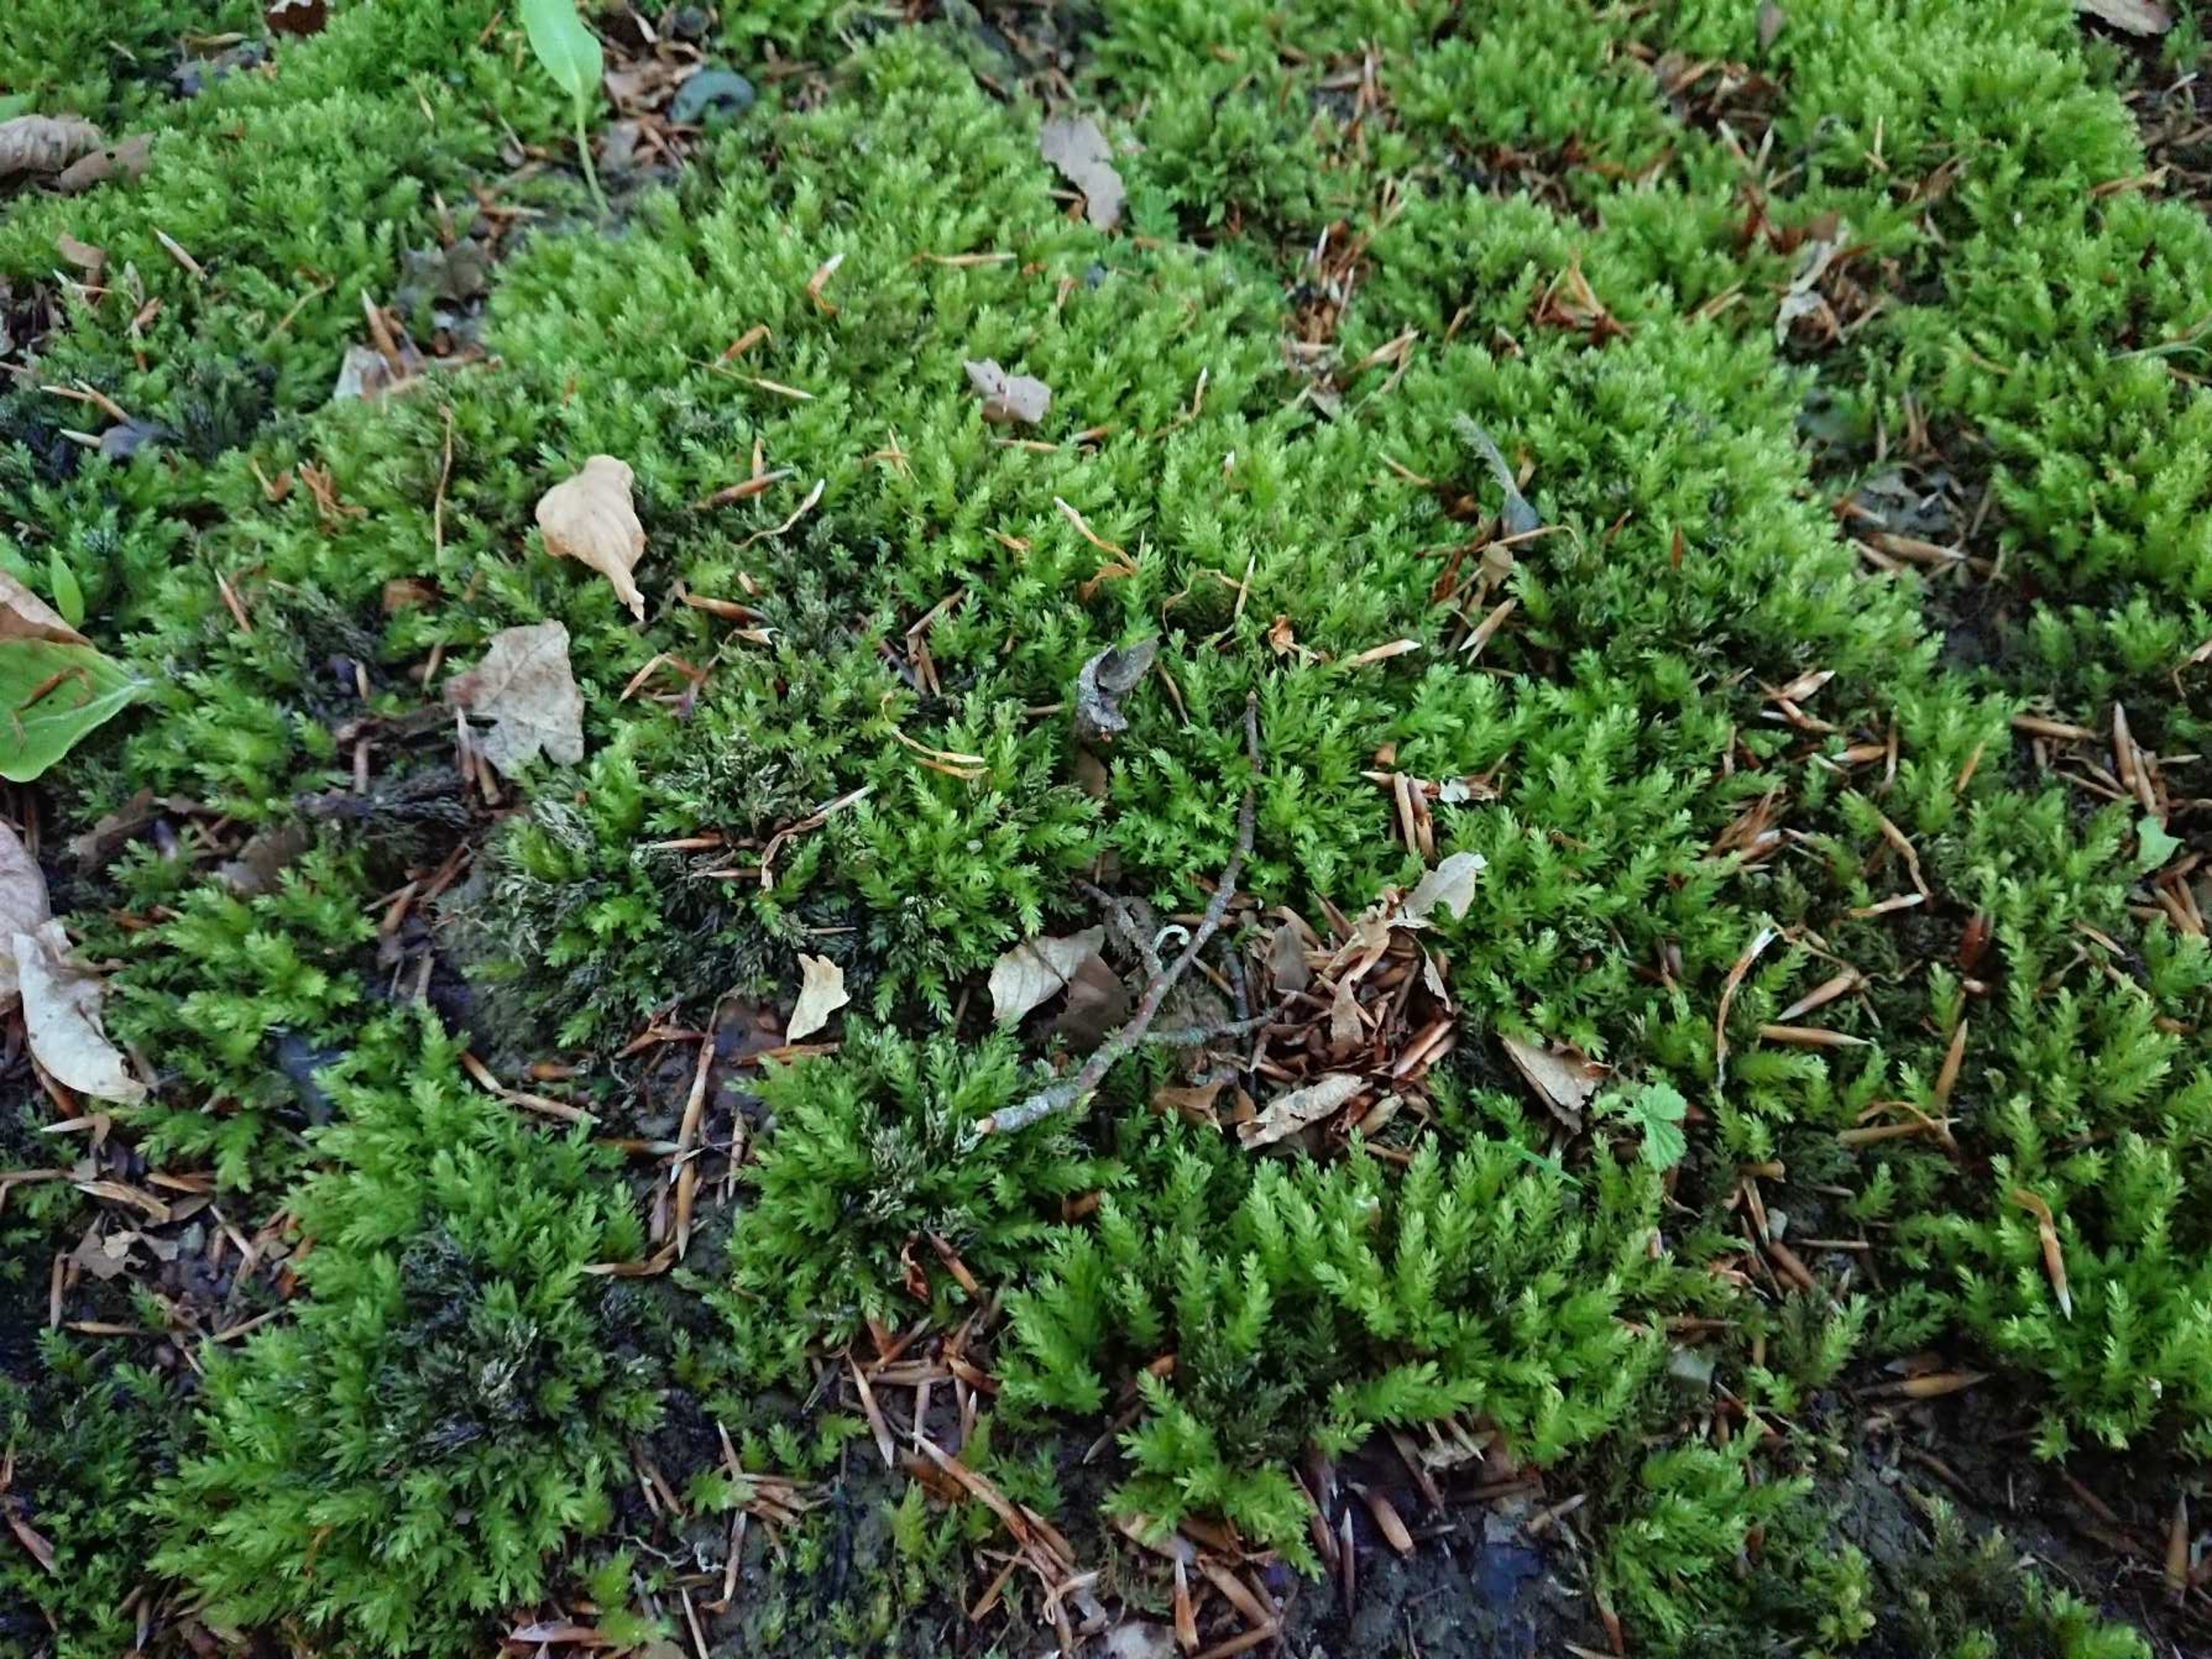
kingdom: Plantae
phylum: Bryophyta
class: Bryopsida
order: Bryales
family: Mniaceae
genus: Mnium
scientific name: Mnium hornum
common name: Brunfiltet stjernemos
